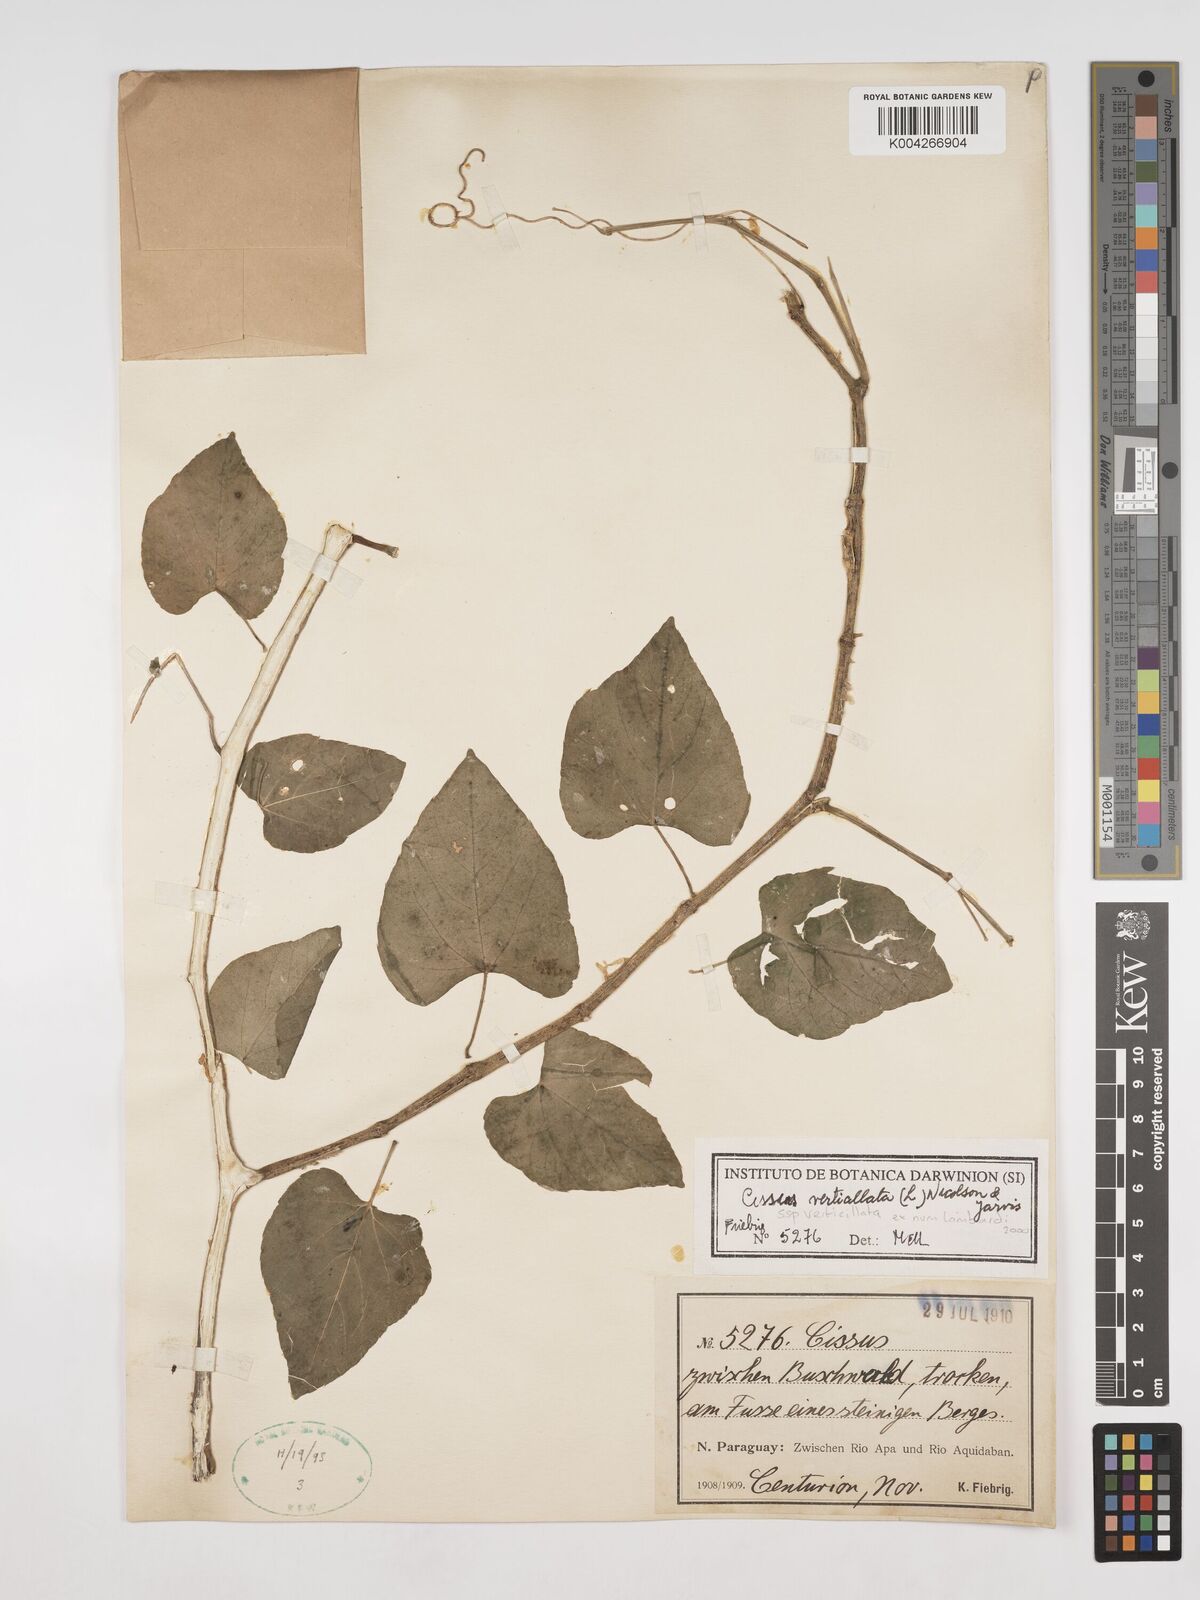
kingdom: Plantae
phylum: Tracheophyta
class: Magnoliopsida
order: Vitales
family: Vitaceae
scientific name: Vitaceae
